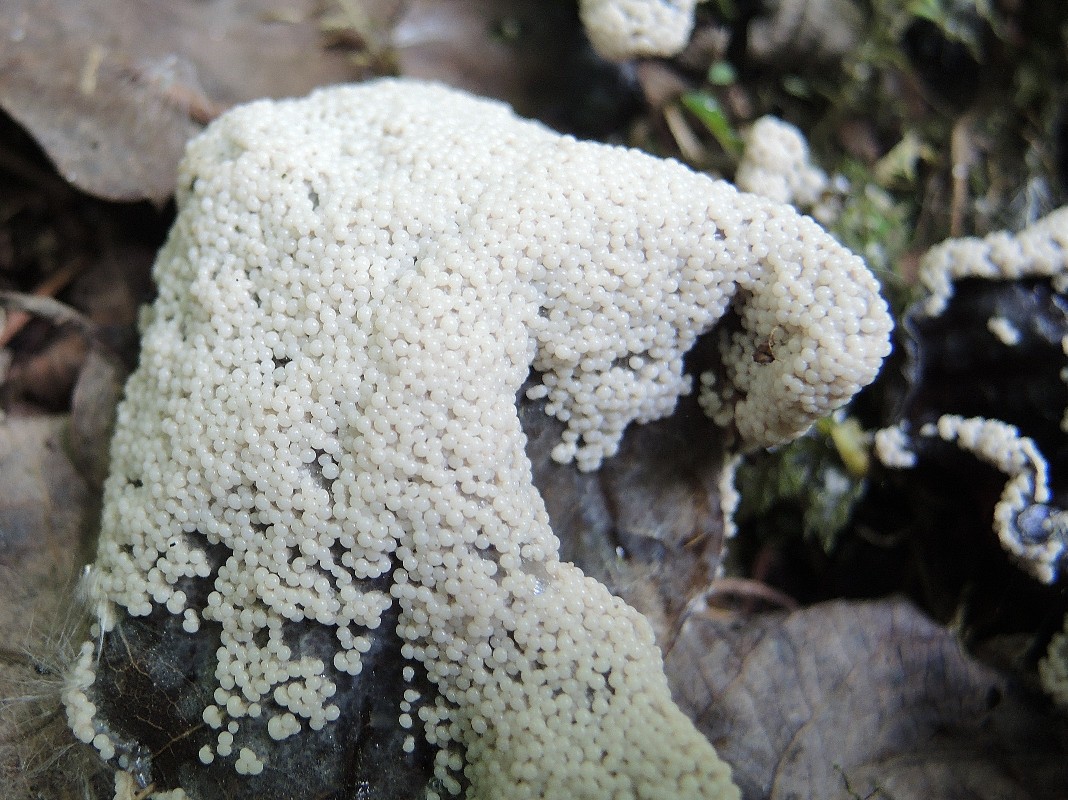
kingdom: Protozoa
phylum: Mycetozoa
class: Myxomycetes
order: Physarales
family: Didymiaceae
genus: Diderma
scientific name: Diderma spumarioides
